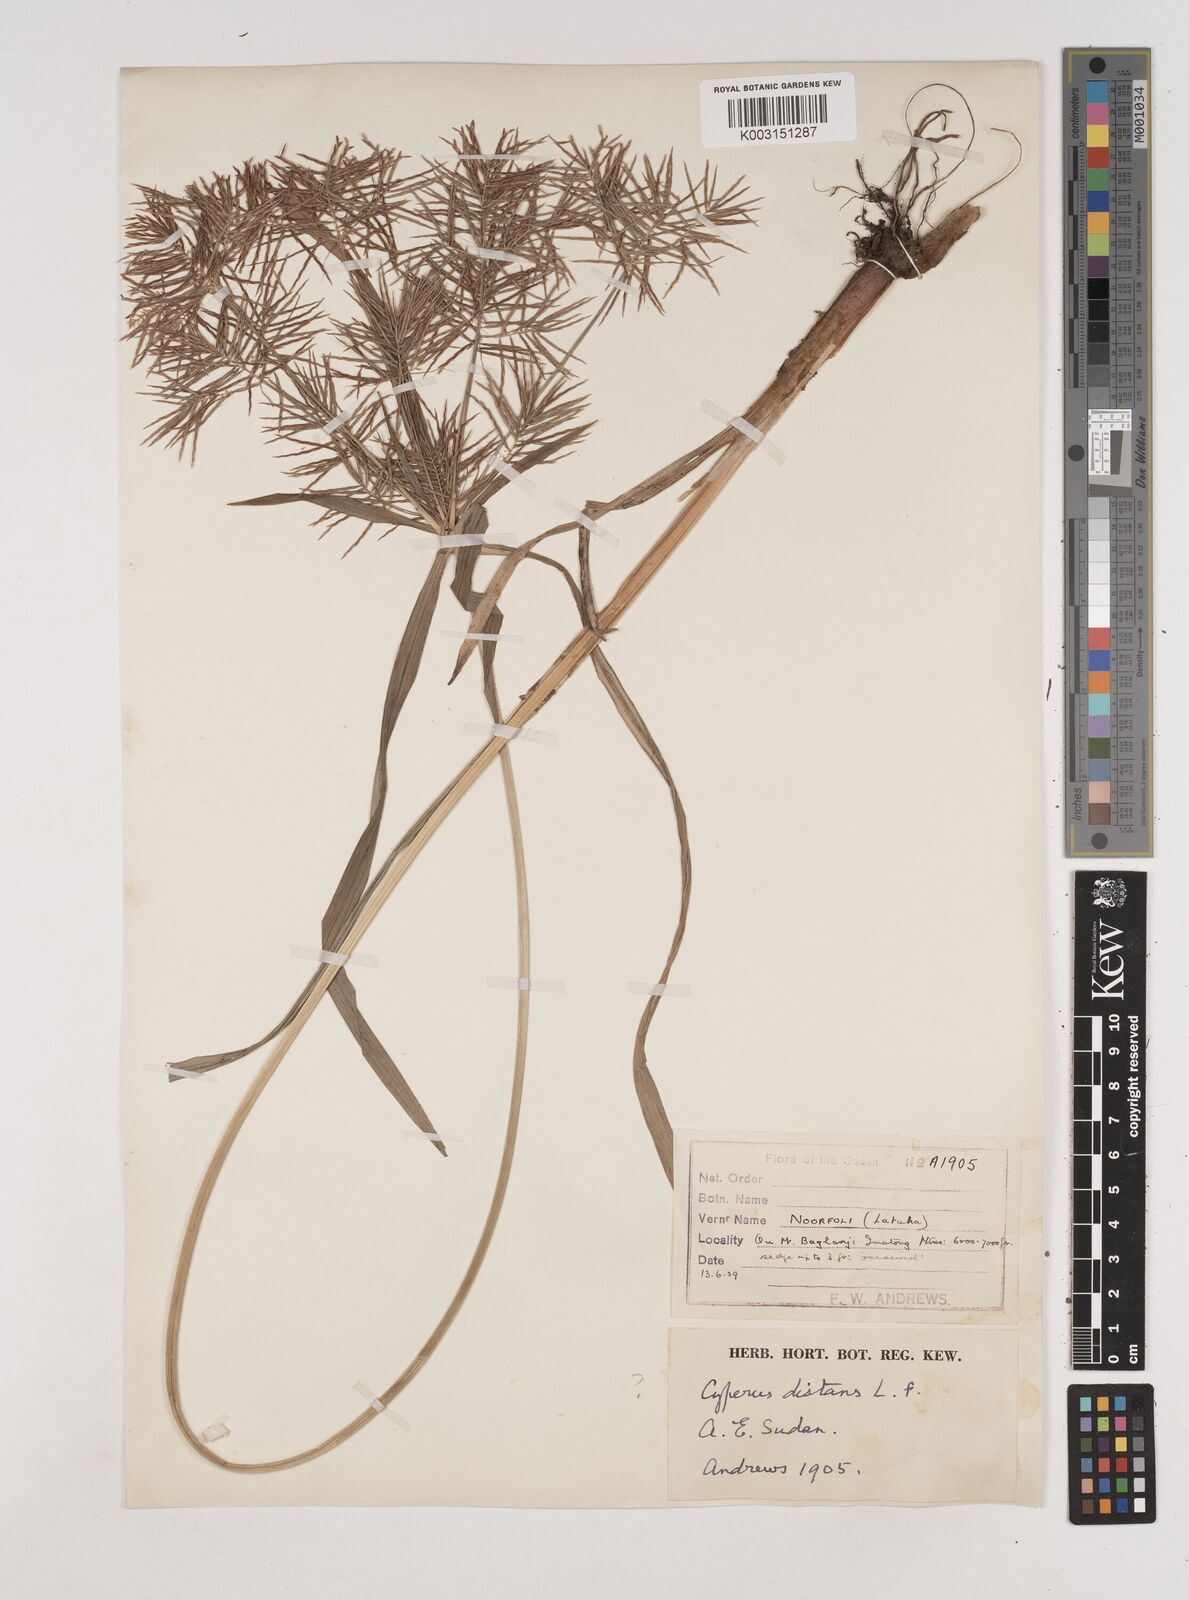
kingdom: Plantae
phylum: Tracheophyta
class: Liliopsida
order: Poales
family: Cyperaceae
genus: Cyperus
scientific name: Cyperus distans
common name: Slender cyperus
